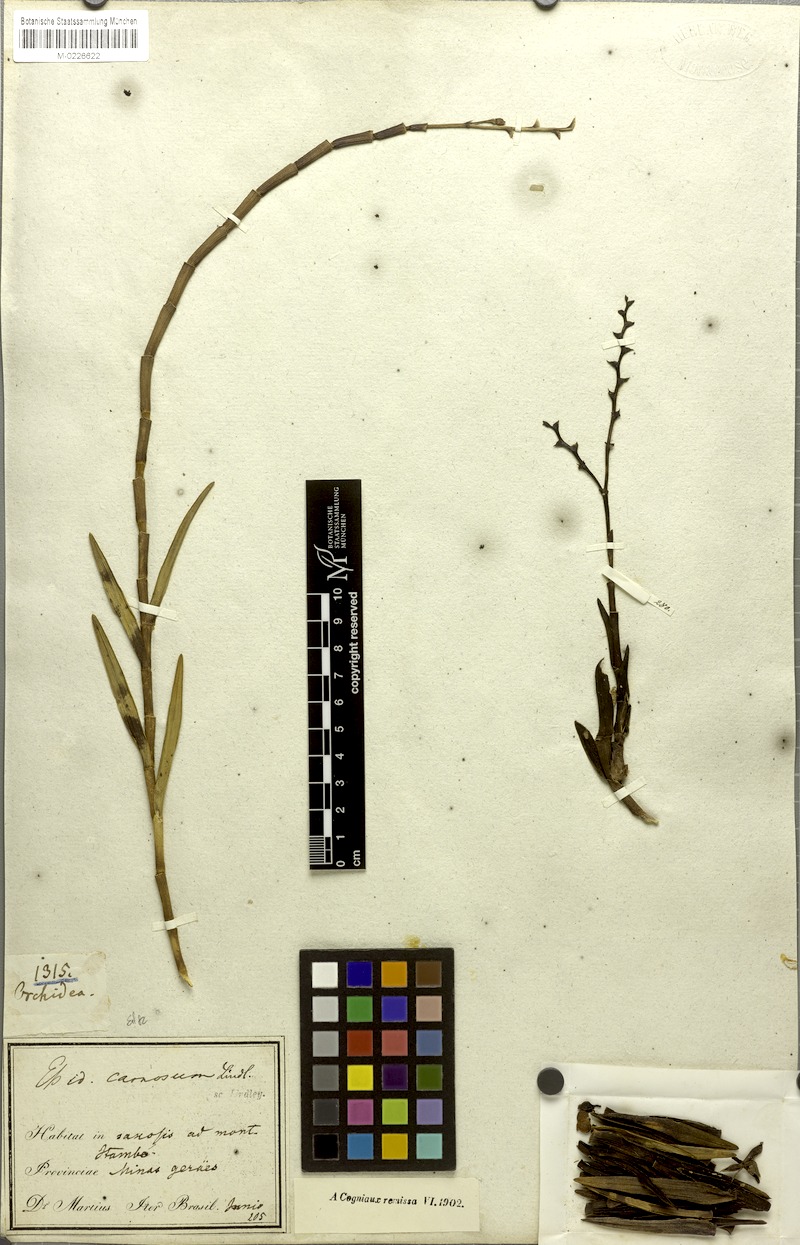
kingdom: Plantae
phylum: Tracheophyta
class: Liliopsida
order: Asparagales
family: Orchidaceae
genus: Epidendrum
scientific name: Epidendrum durum
